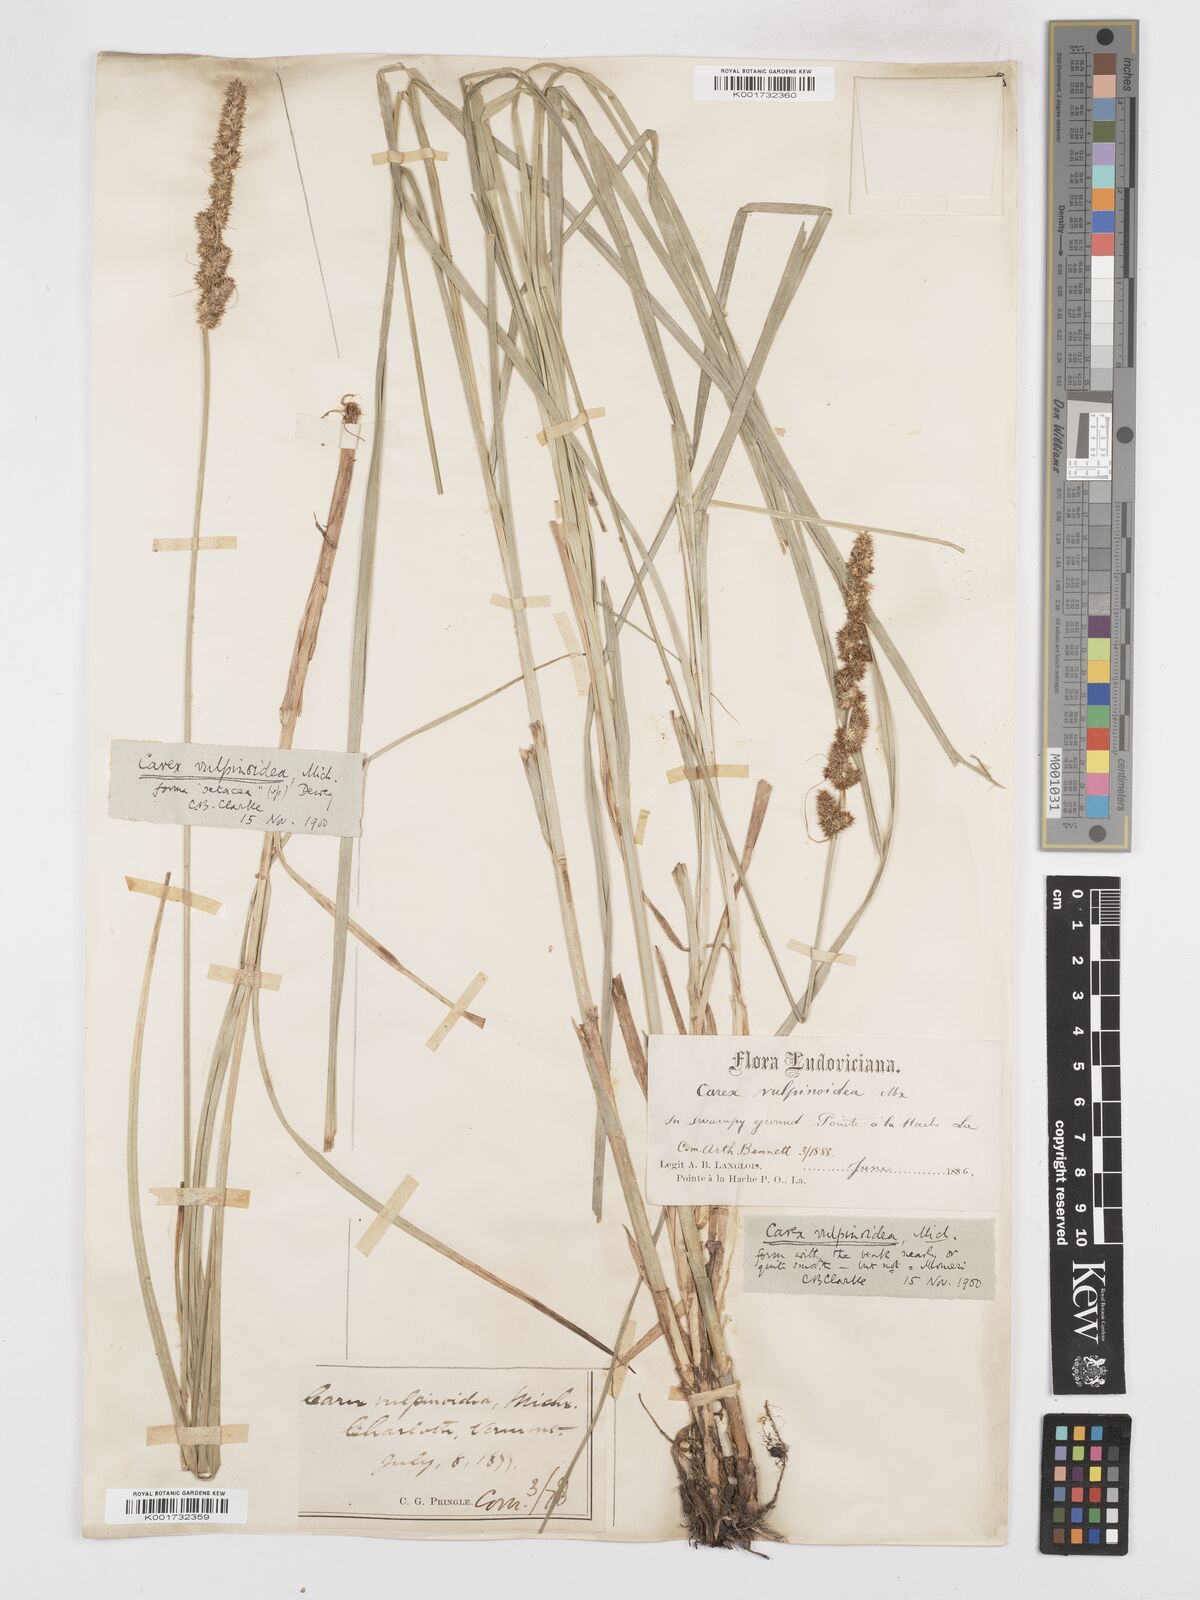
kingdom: Plantae
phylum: Tracheophyta
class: Liliopsida
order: Poales
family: Cyperaceae
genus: Carex
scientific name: Carex vulpinoidea
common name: American fox-sedge
